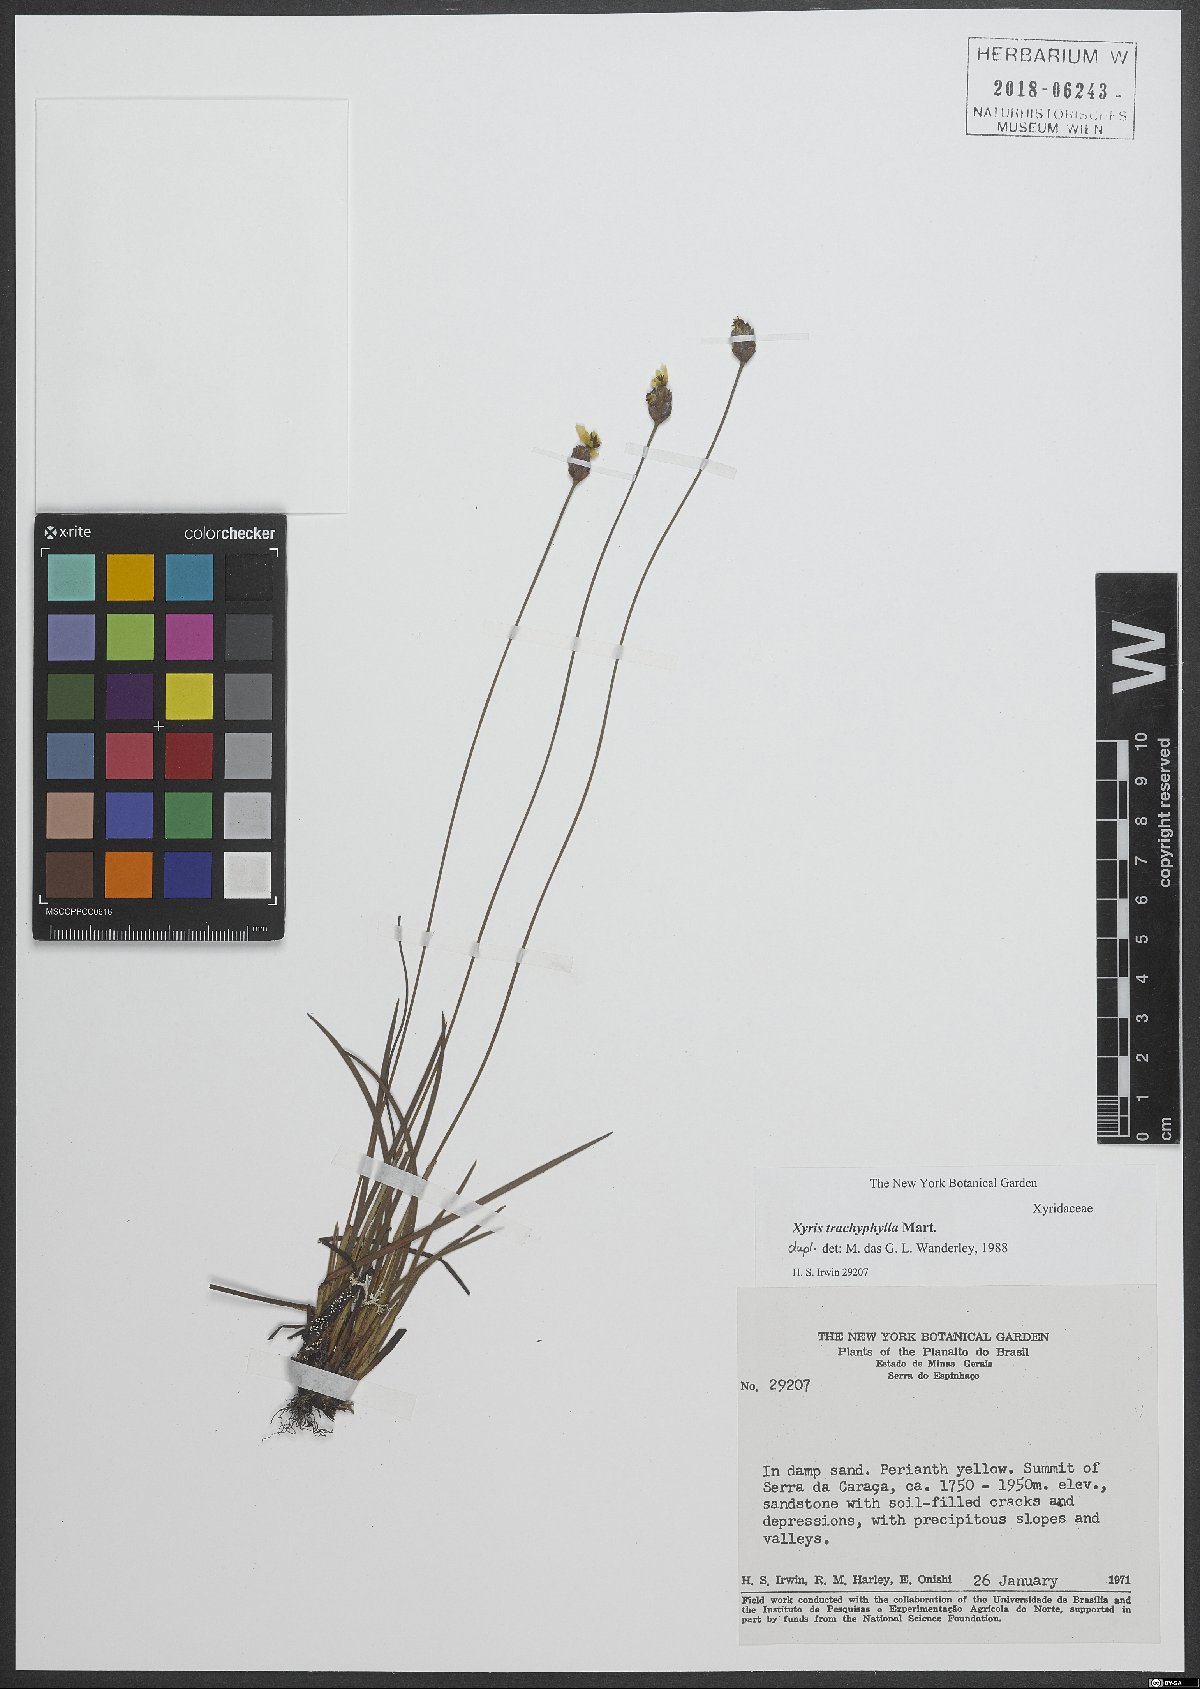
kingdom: Plantae
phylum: Tracheophyta
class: Liliopsida
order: Poales
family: Xyridaceae
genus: Xyris
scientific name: Xyris trachyphylla
